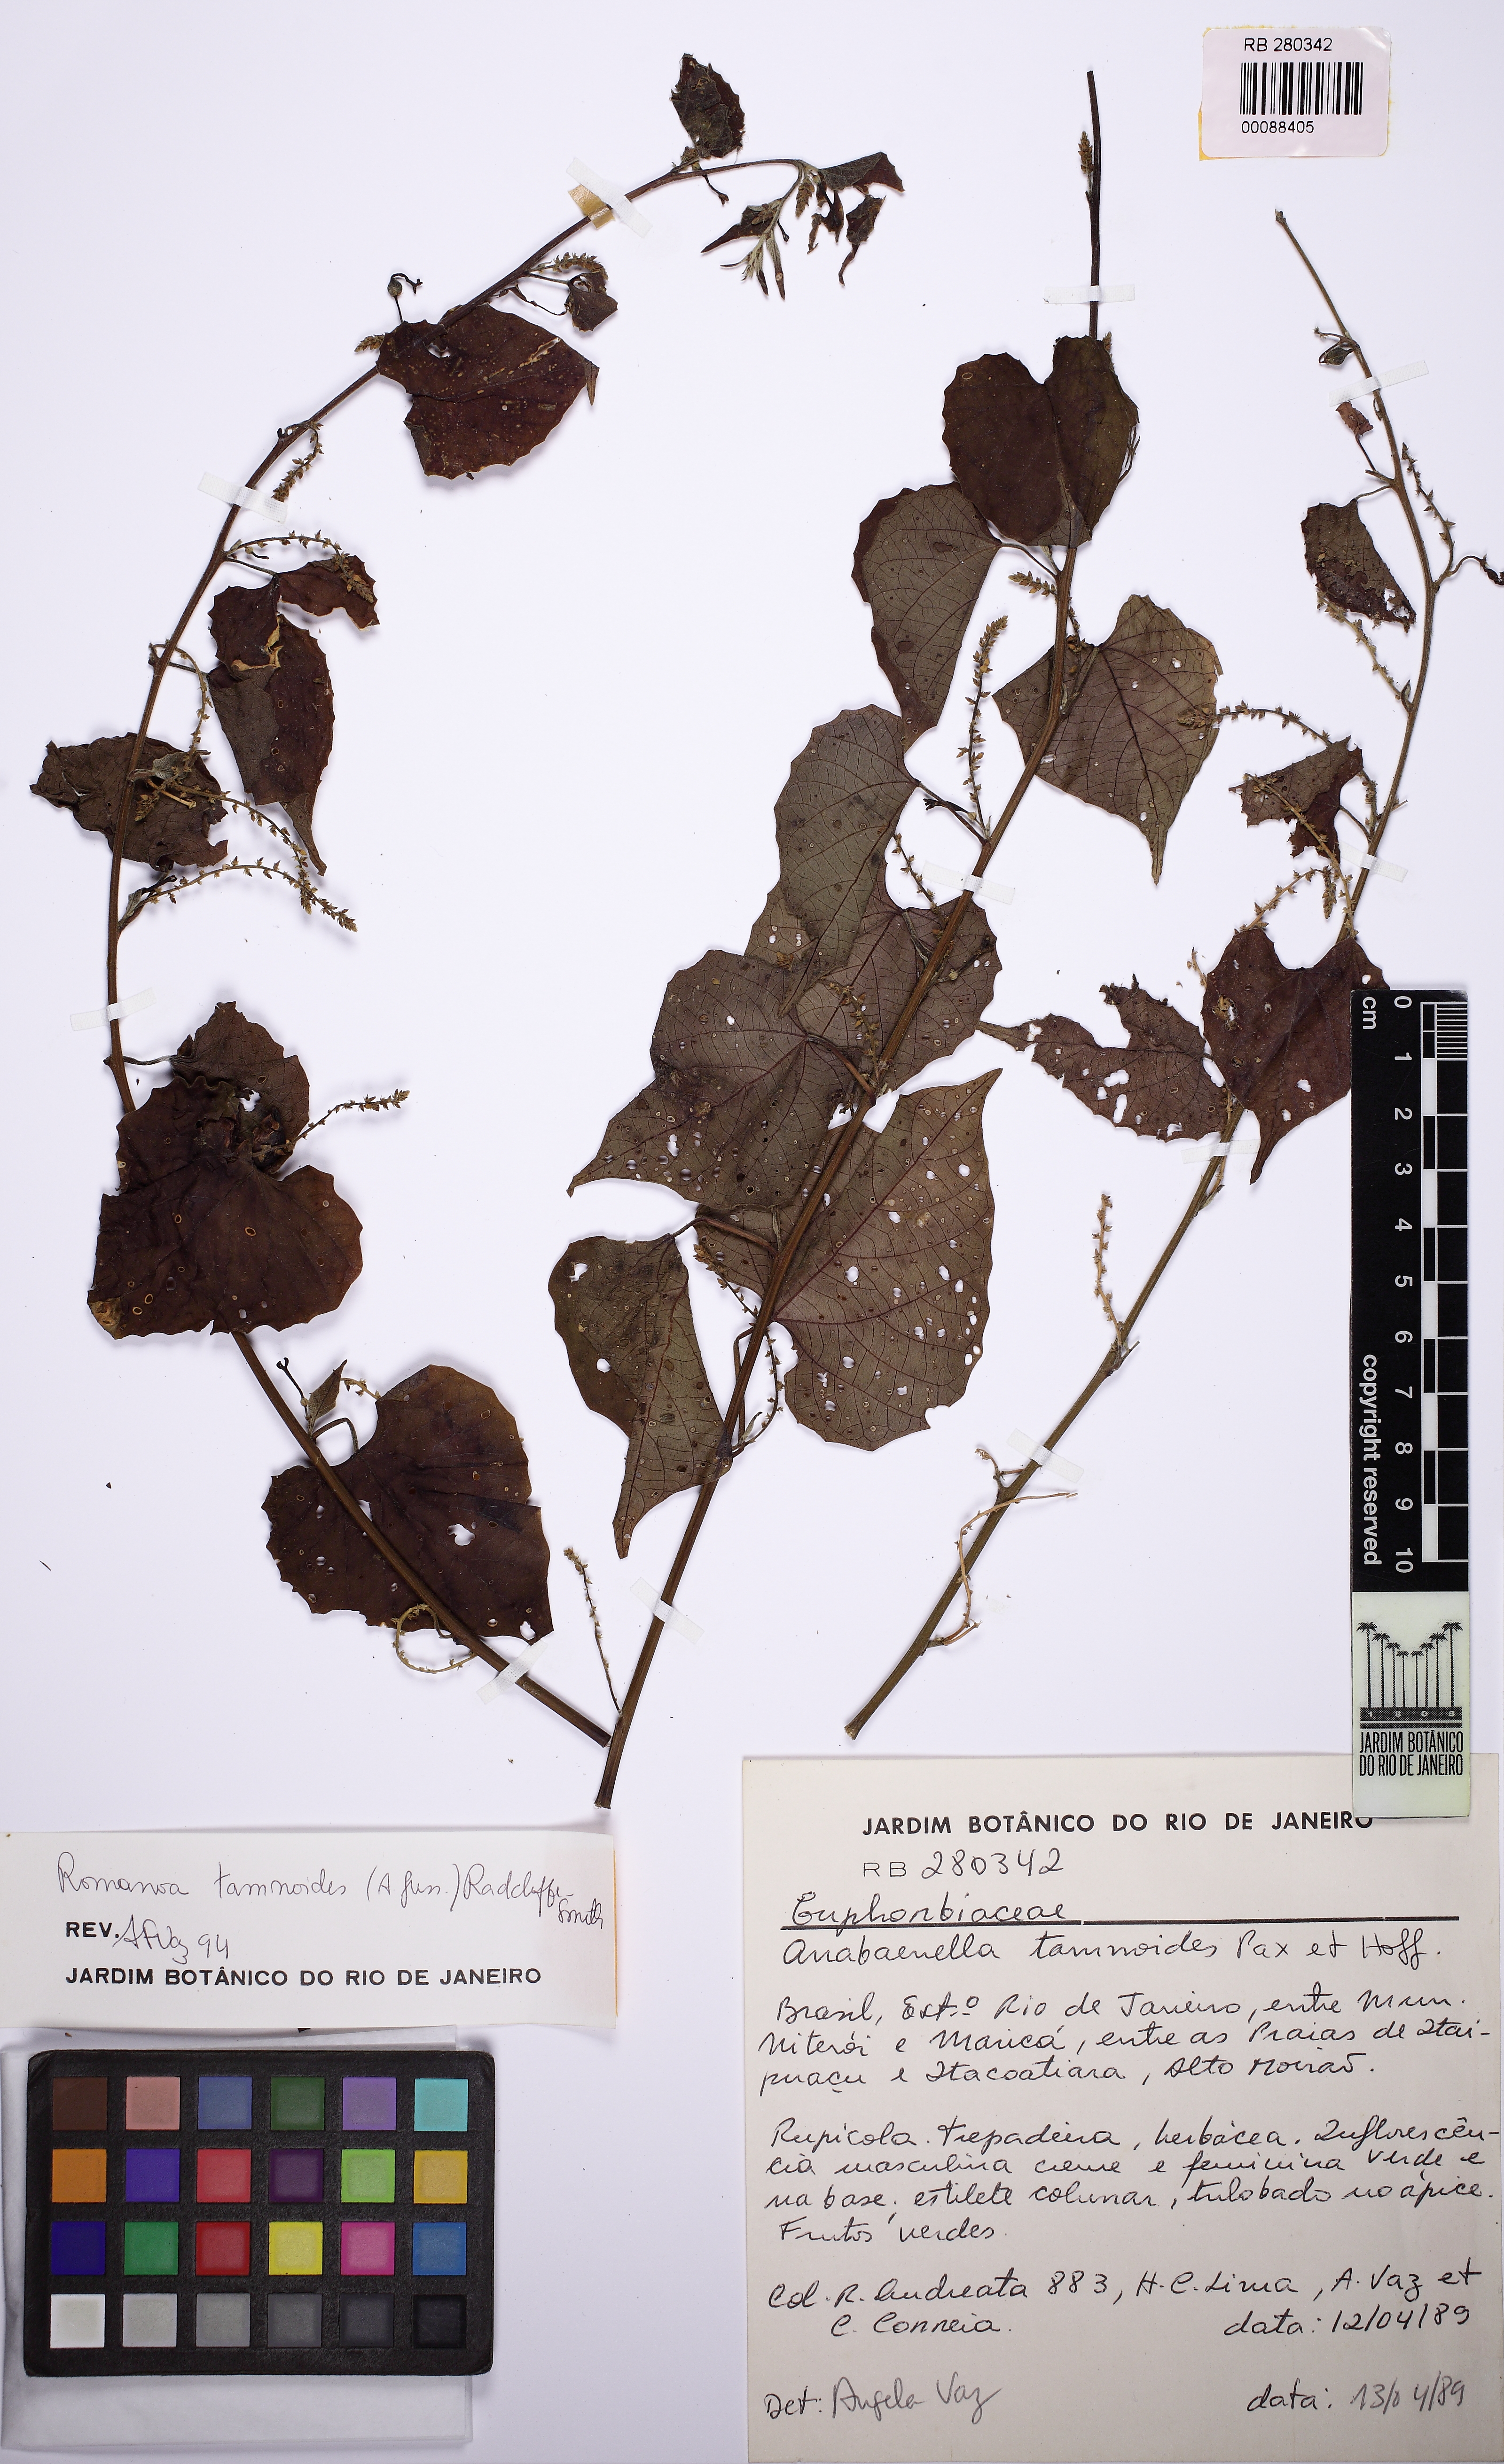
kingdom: Plantae
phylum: Tracheophyta
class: Magnoliopsida
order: Malpighiales
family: Euphorbiaceae
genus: Romanoa
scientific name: Romanoa tamnoides
